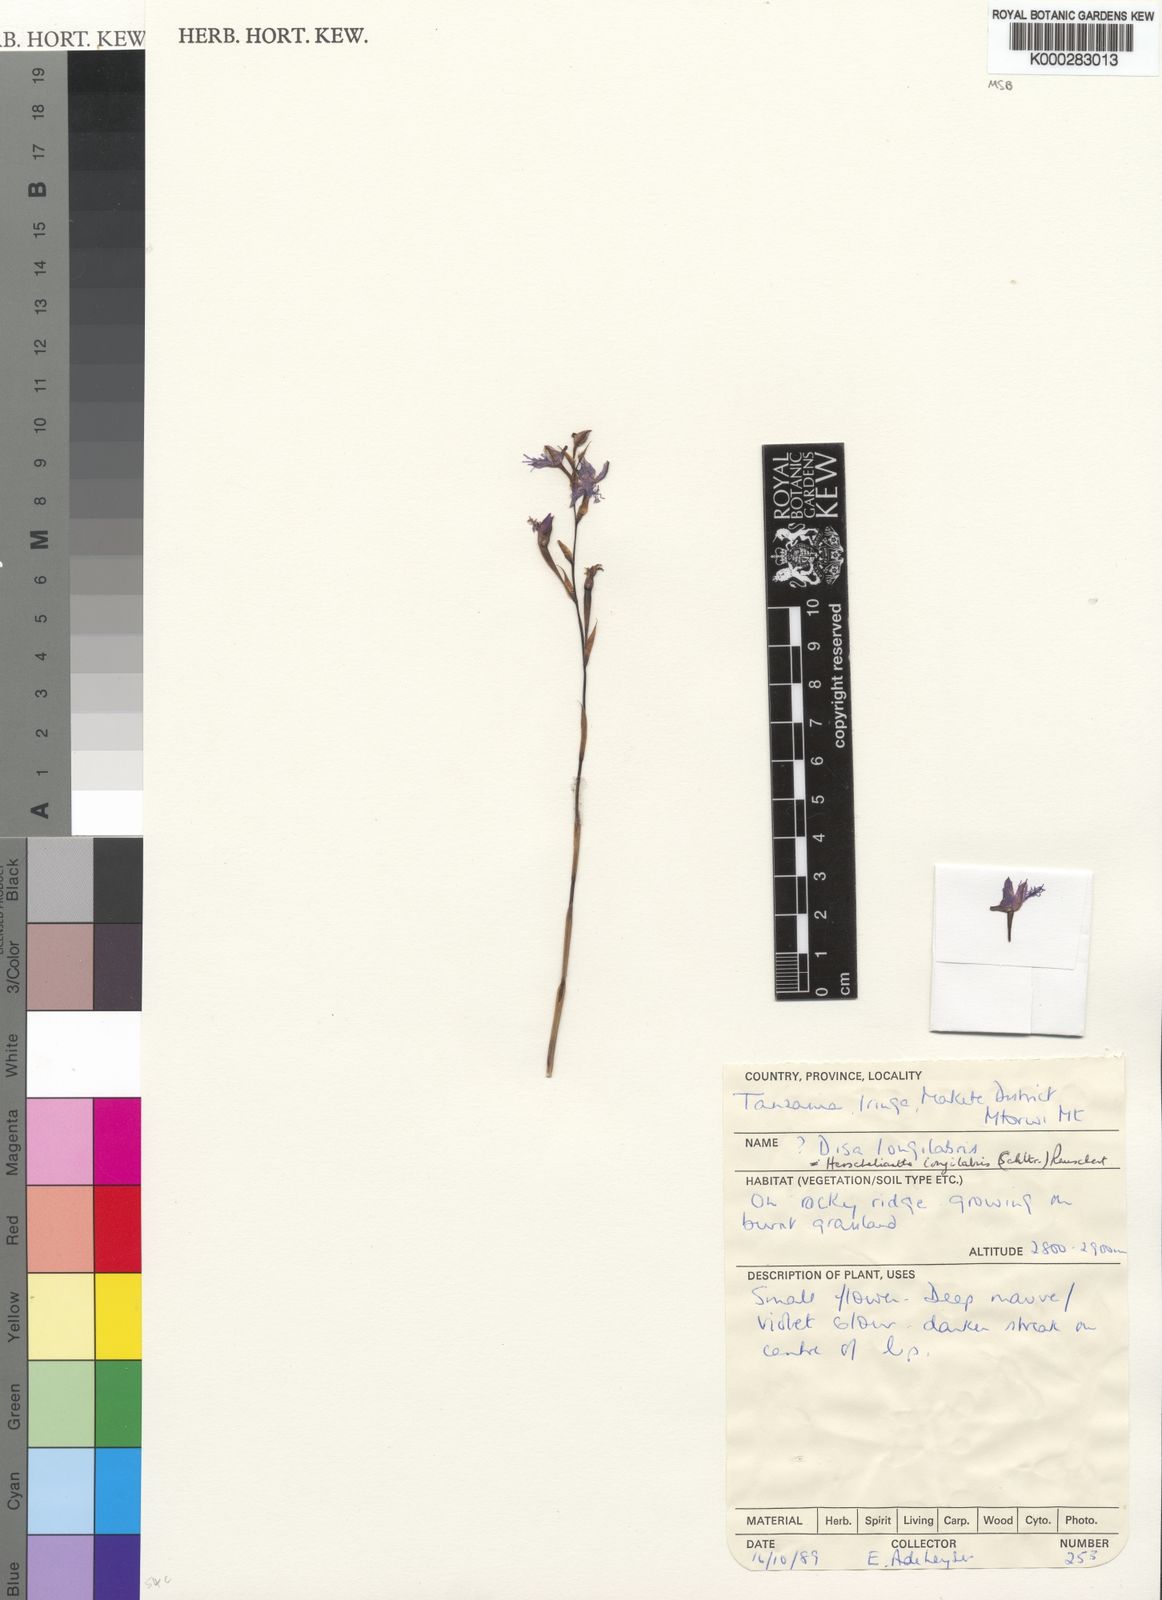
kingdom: Plantae
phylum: Tracheophyta
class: Liliopsida
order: Asparagales
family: Orchidaceae
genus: Disa
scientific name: Disa longilabris
